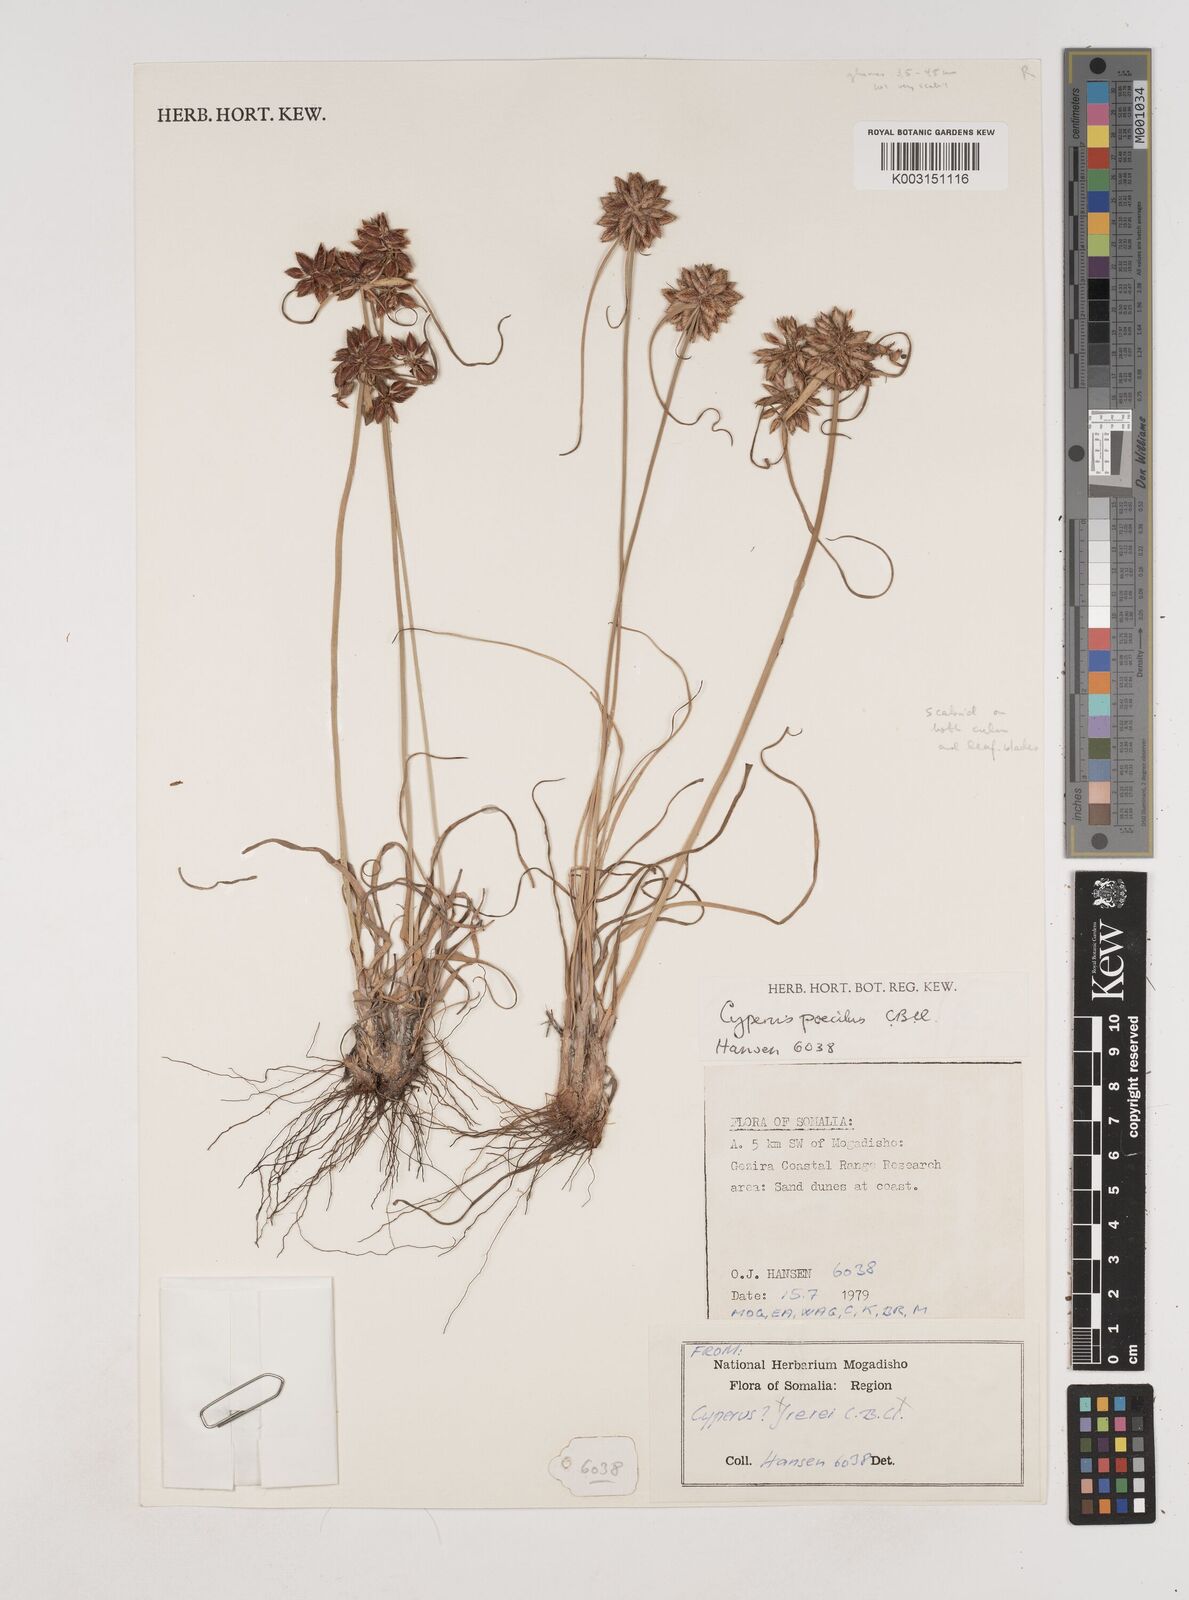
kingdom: Plantae
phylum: Tracheophyta
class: Liliopsida
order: Poales
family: Cyperaceae
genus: Cyperus
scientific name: Cyperus poecilus
